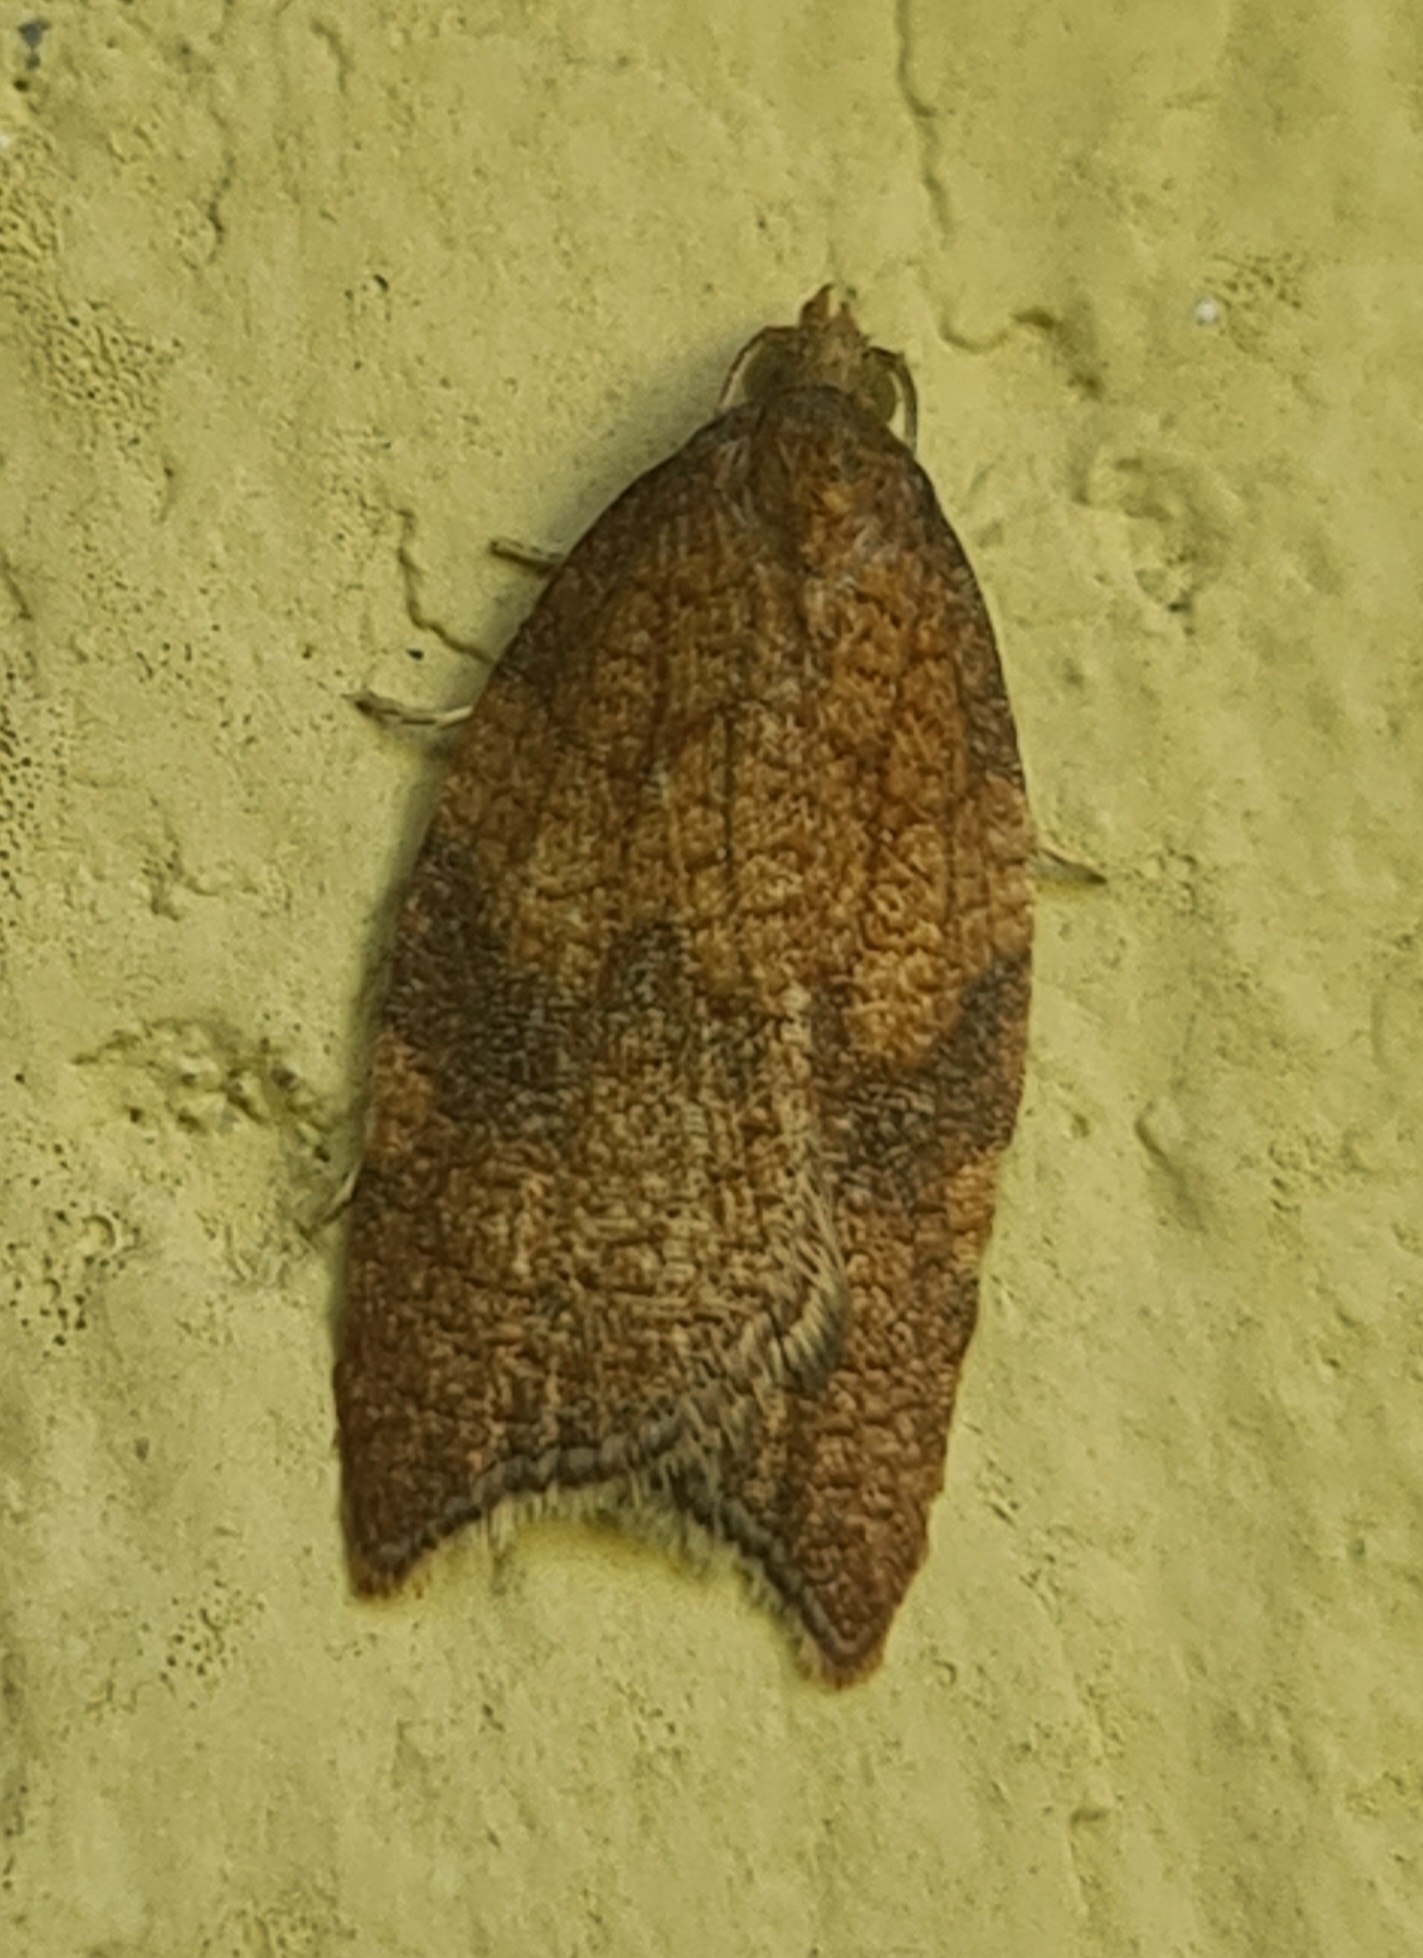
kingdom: Animalia
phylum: Arthropoda
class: Insecta
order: Lepidoptera
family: Tortricidae
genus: Acleris
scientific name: Acleris rhombana
